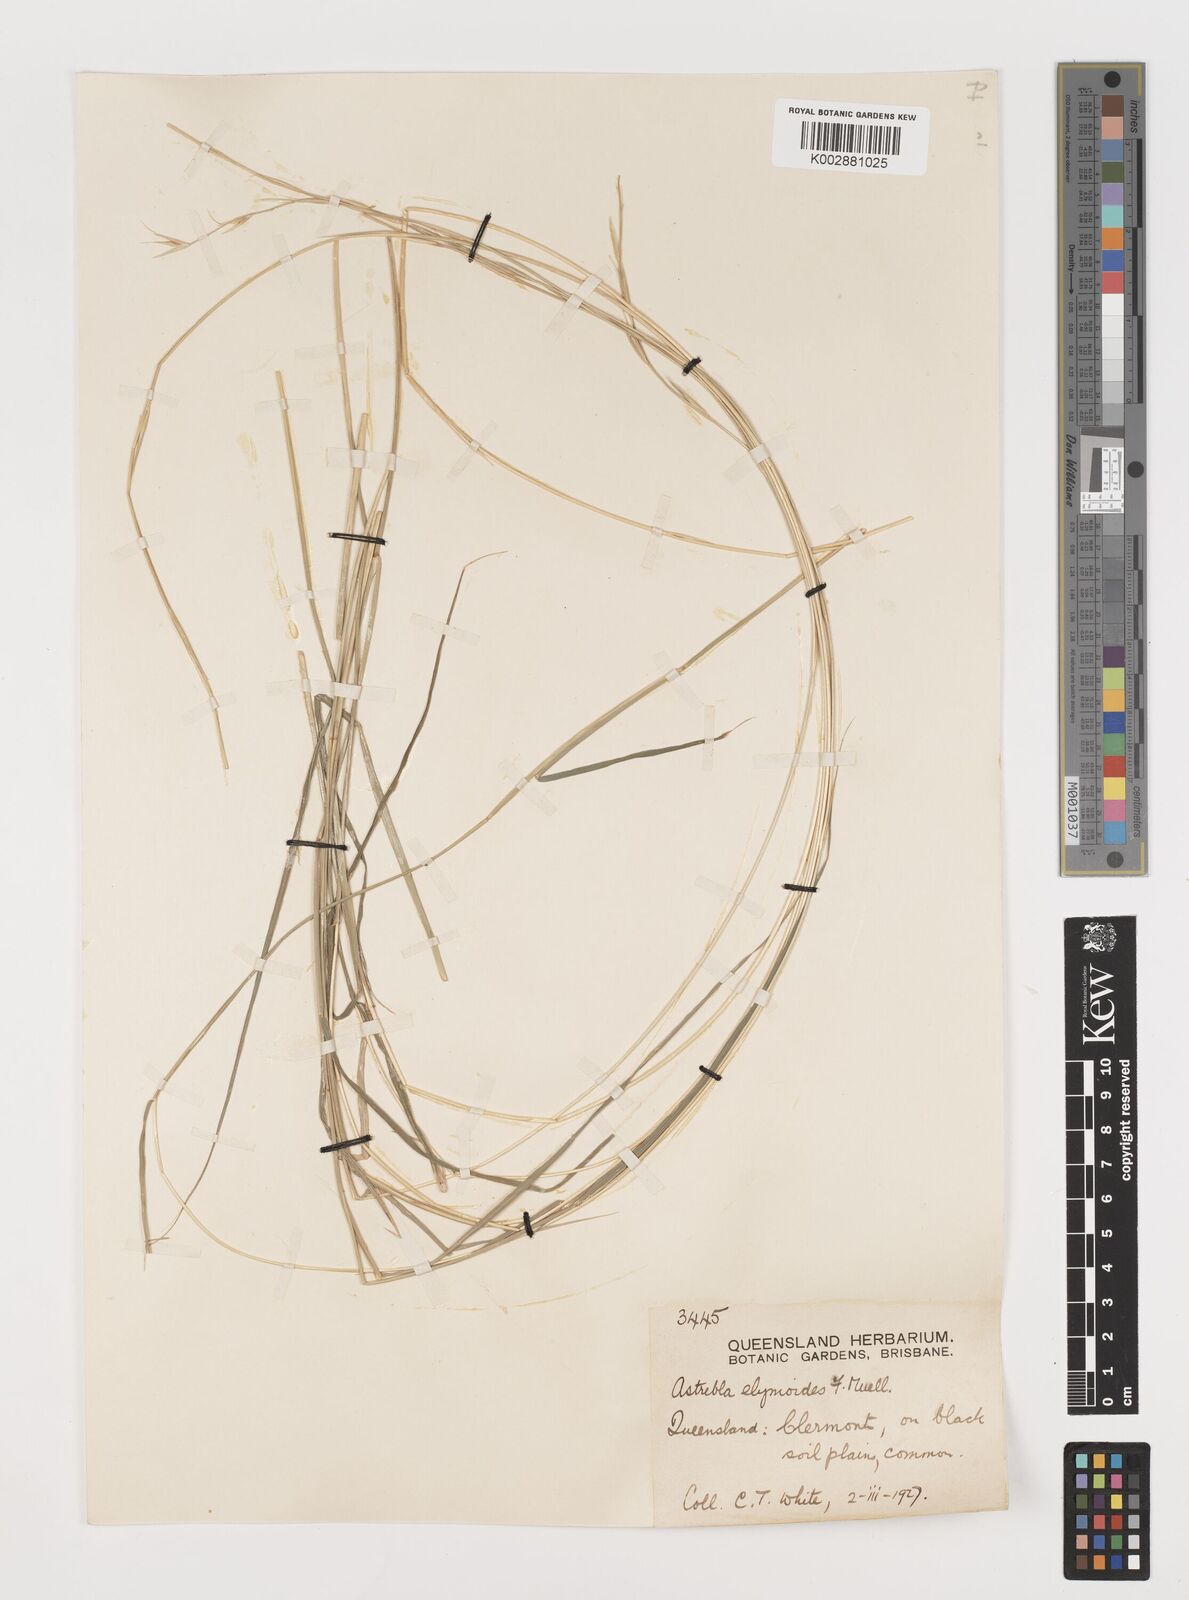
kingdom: Plantae
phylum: Tracheophyta
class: Liliopsida
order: Poales
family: Poaceae
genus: Astrebla
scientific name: Astrebla elymoides
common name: Hoop mitchell grass
